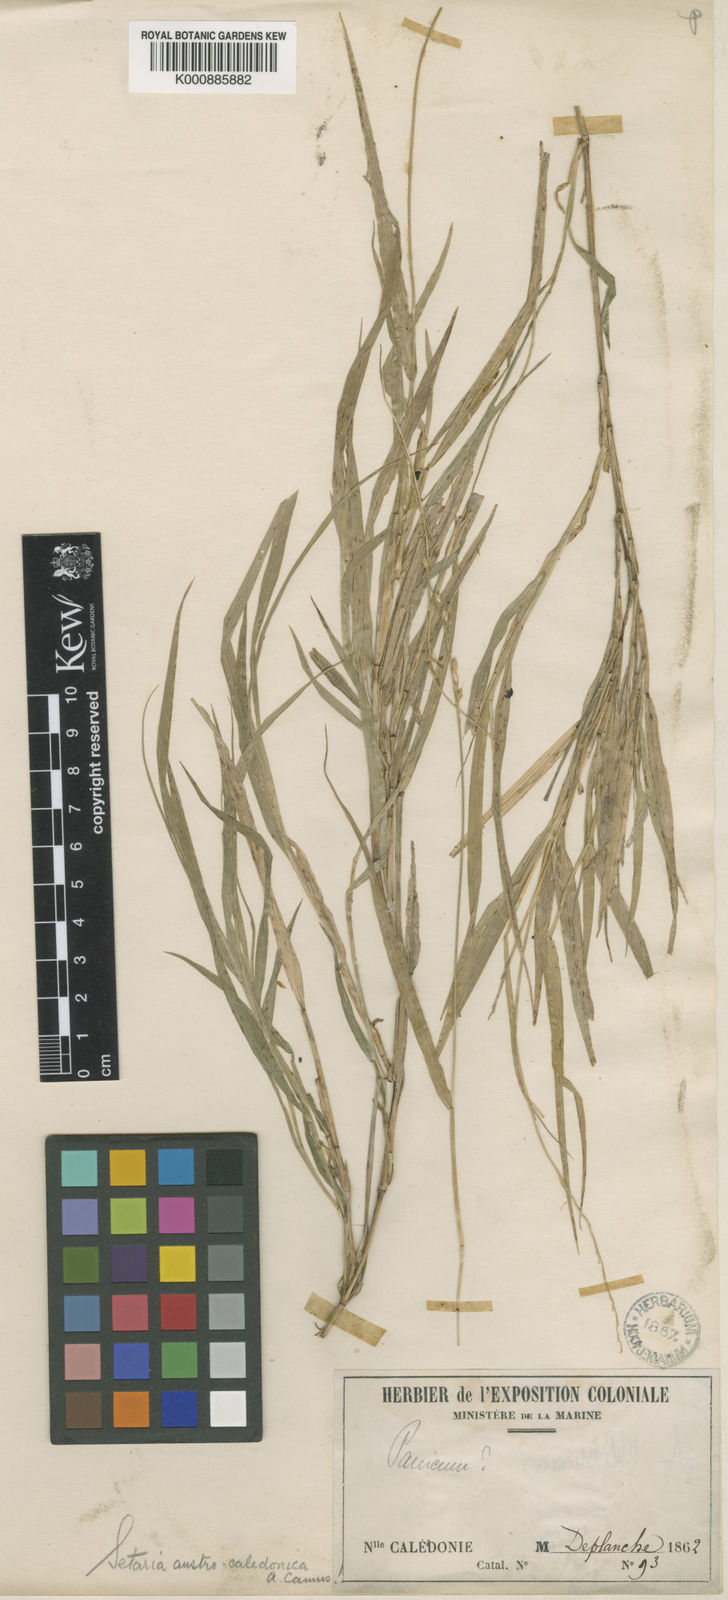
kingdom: Plantae
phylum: Tracheophyta
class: Liliopsida
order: Poales
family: Poaceae
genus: Setaria
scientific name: Setaria austrocaledonica
